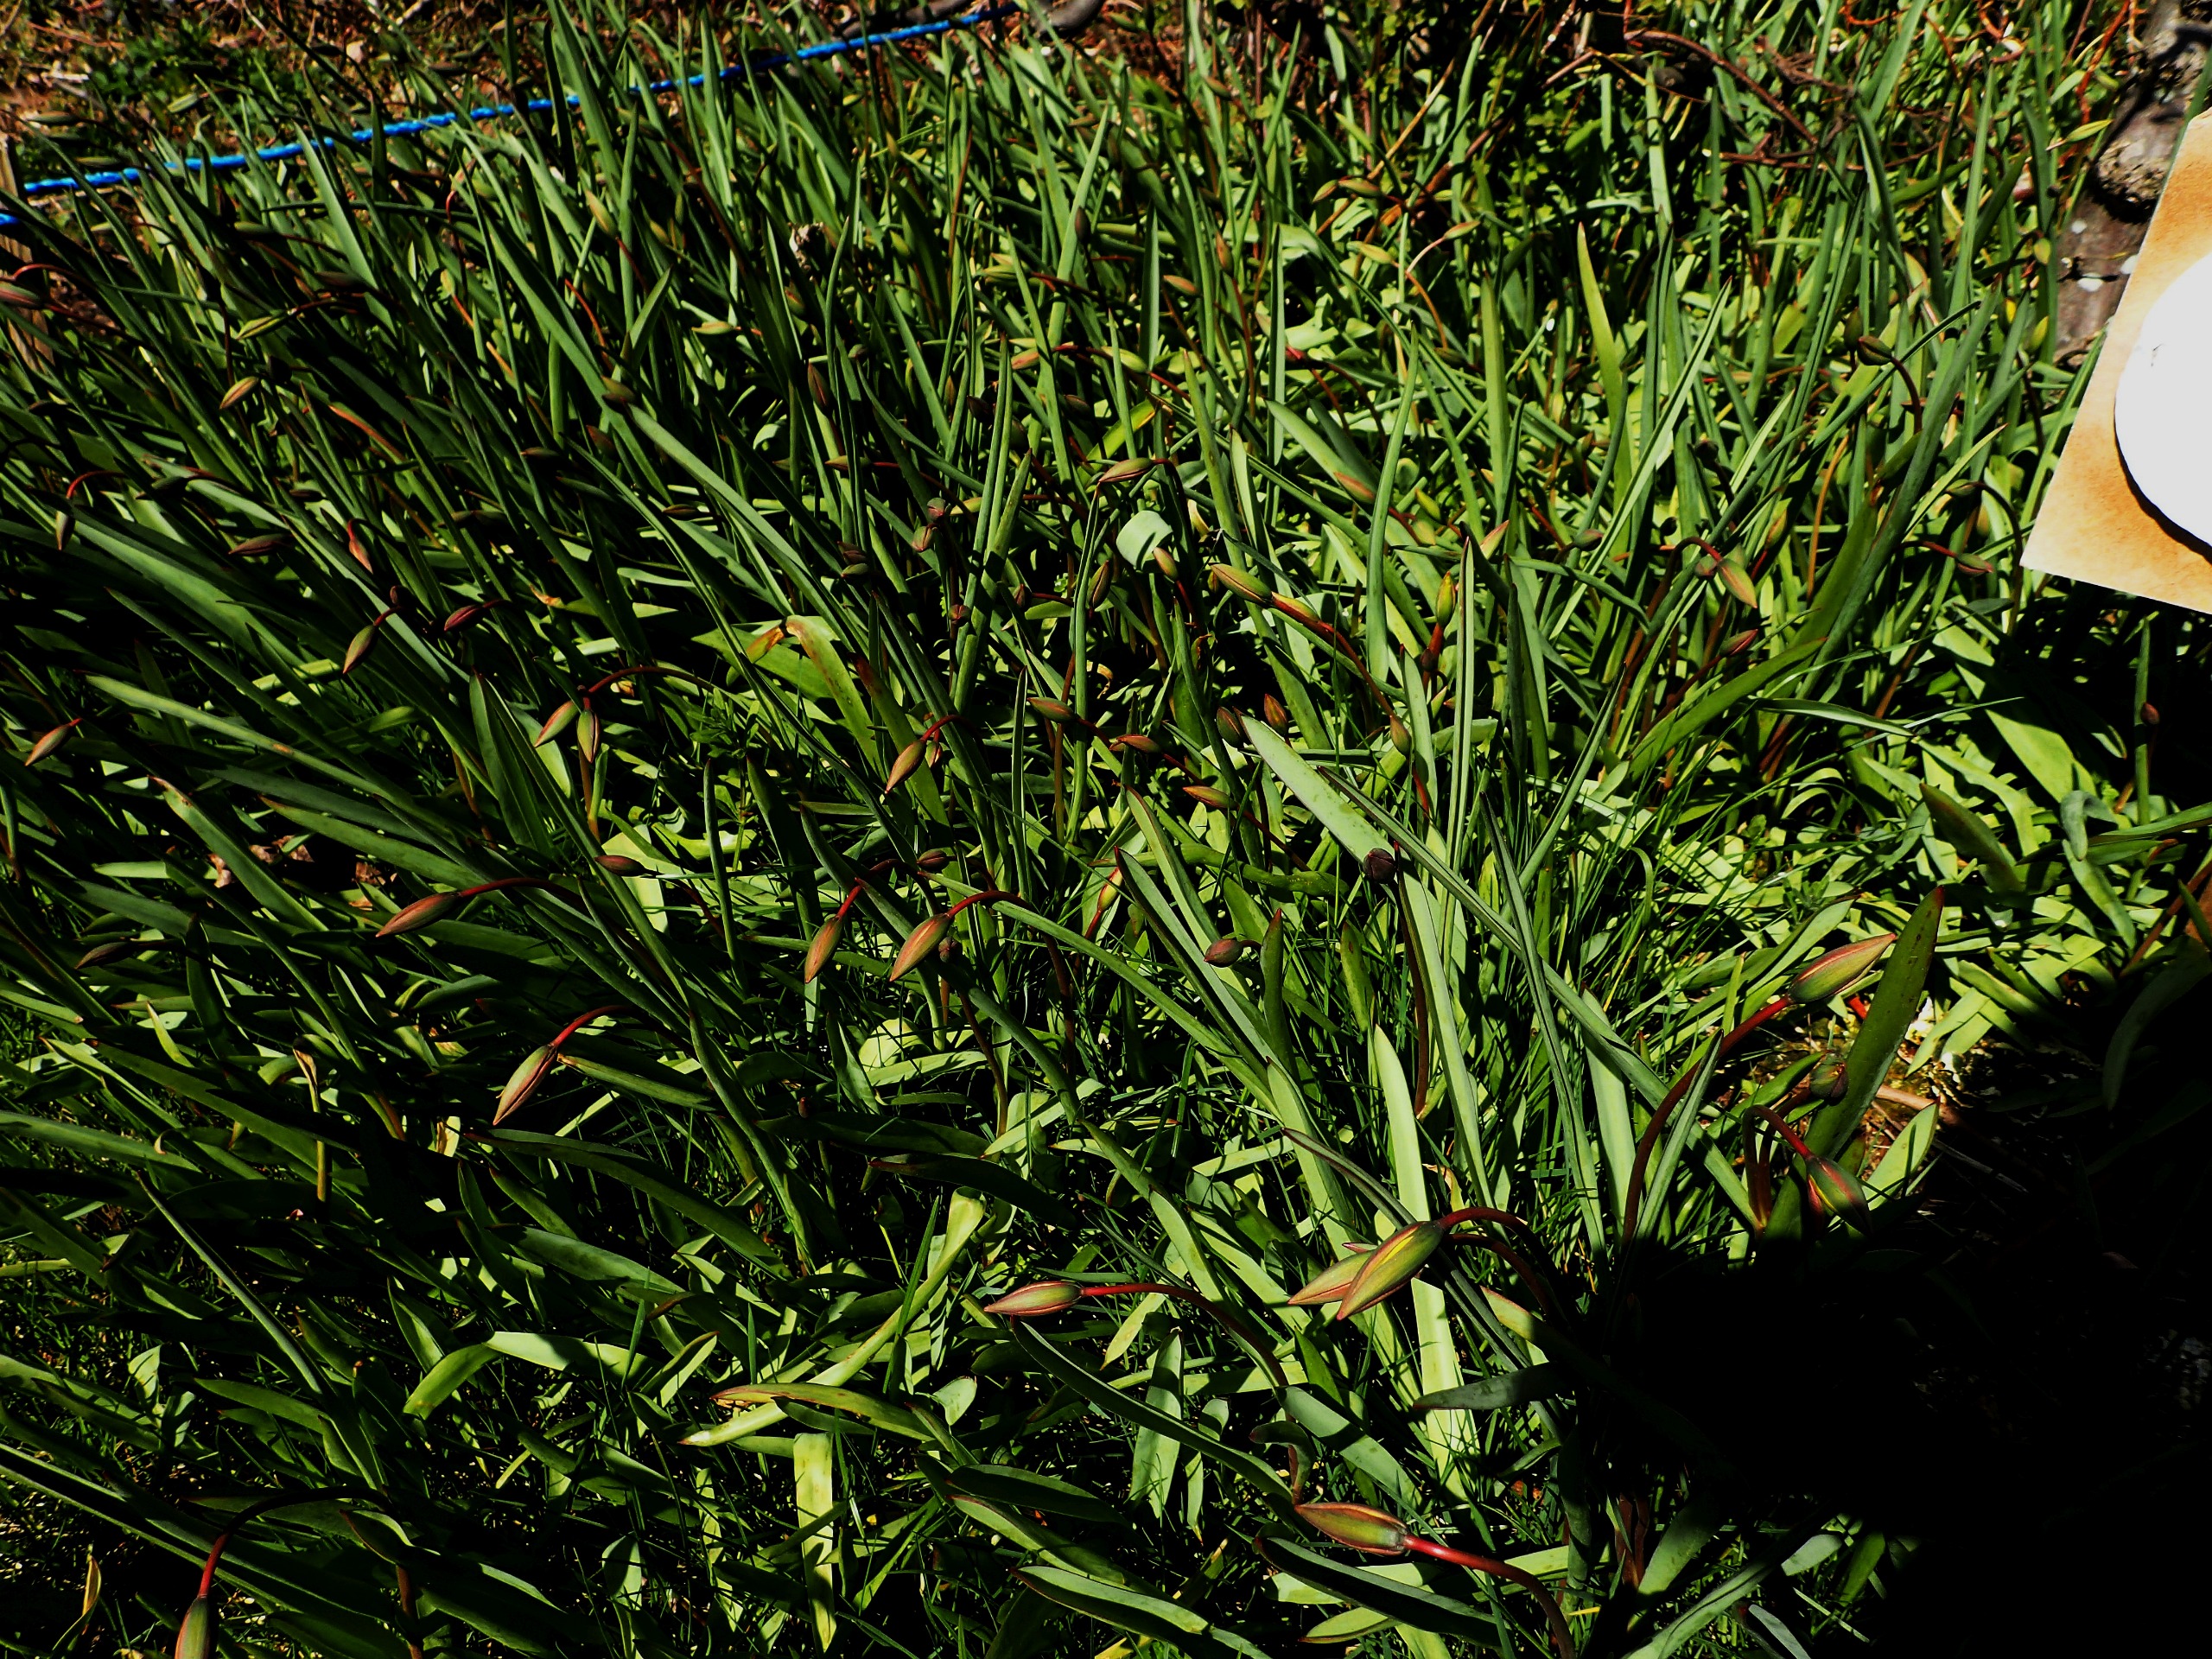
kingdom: Plantae
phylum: Tracheophyta
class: Liliopsida
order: Liliales
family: Liliaceae
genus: Tulipa
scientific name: Tulipa sylvestris
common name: Vild tulipan
